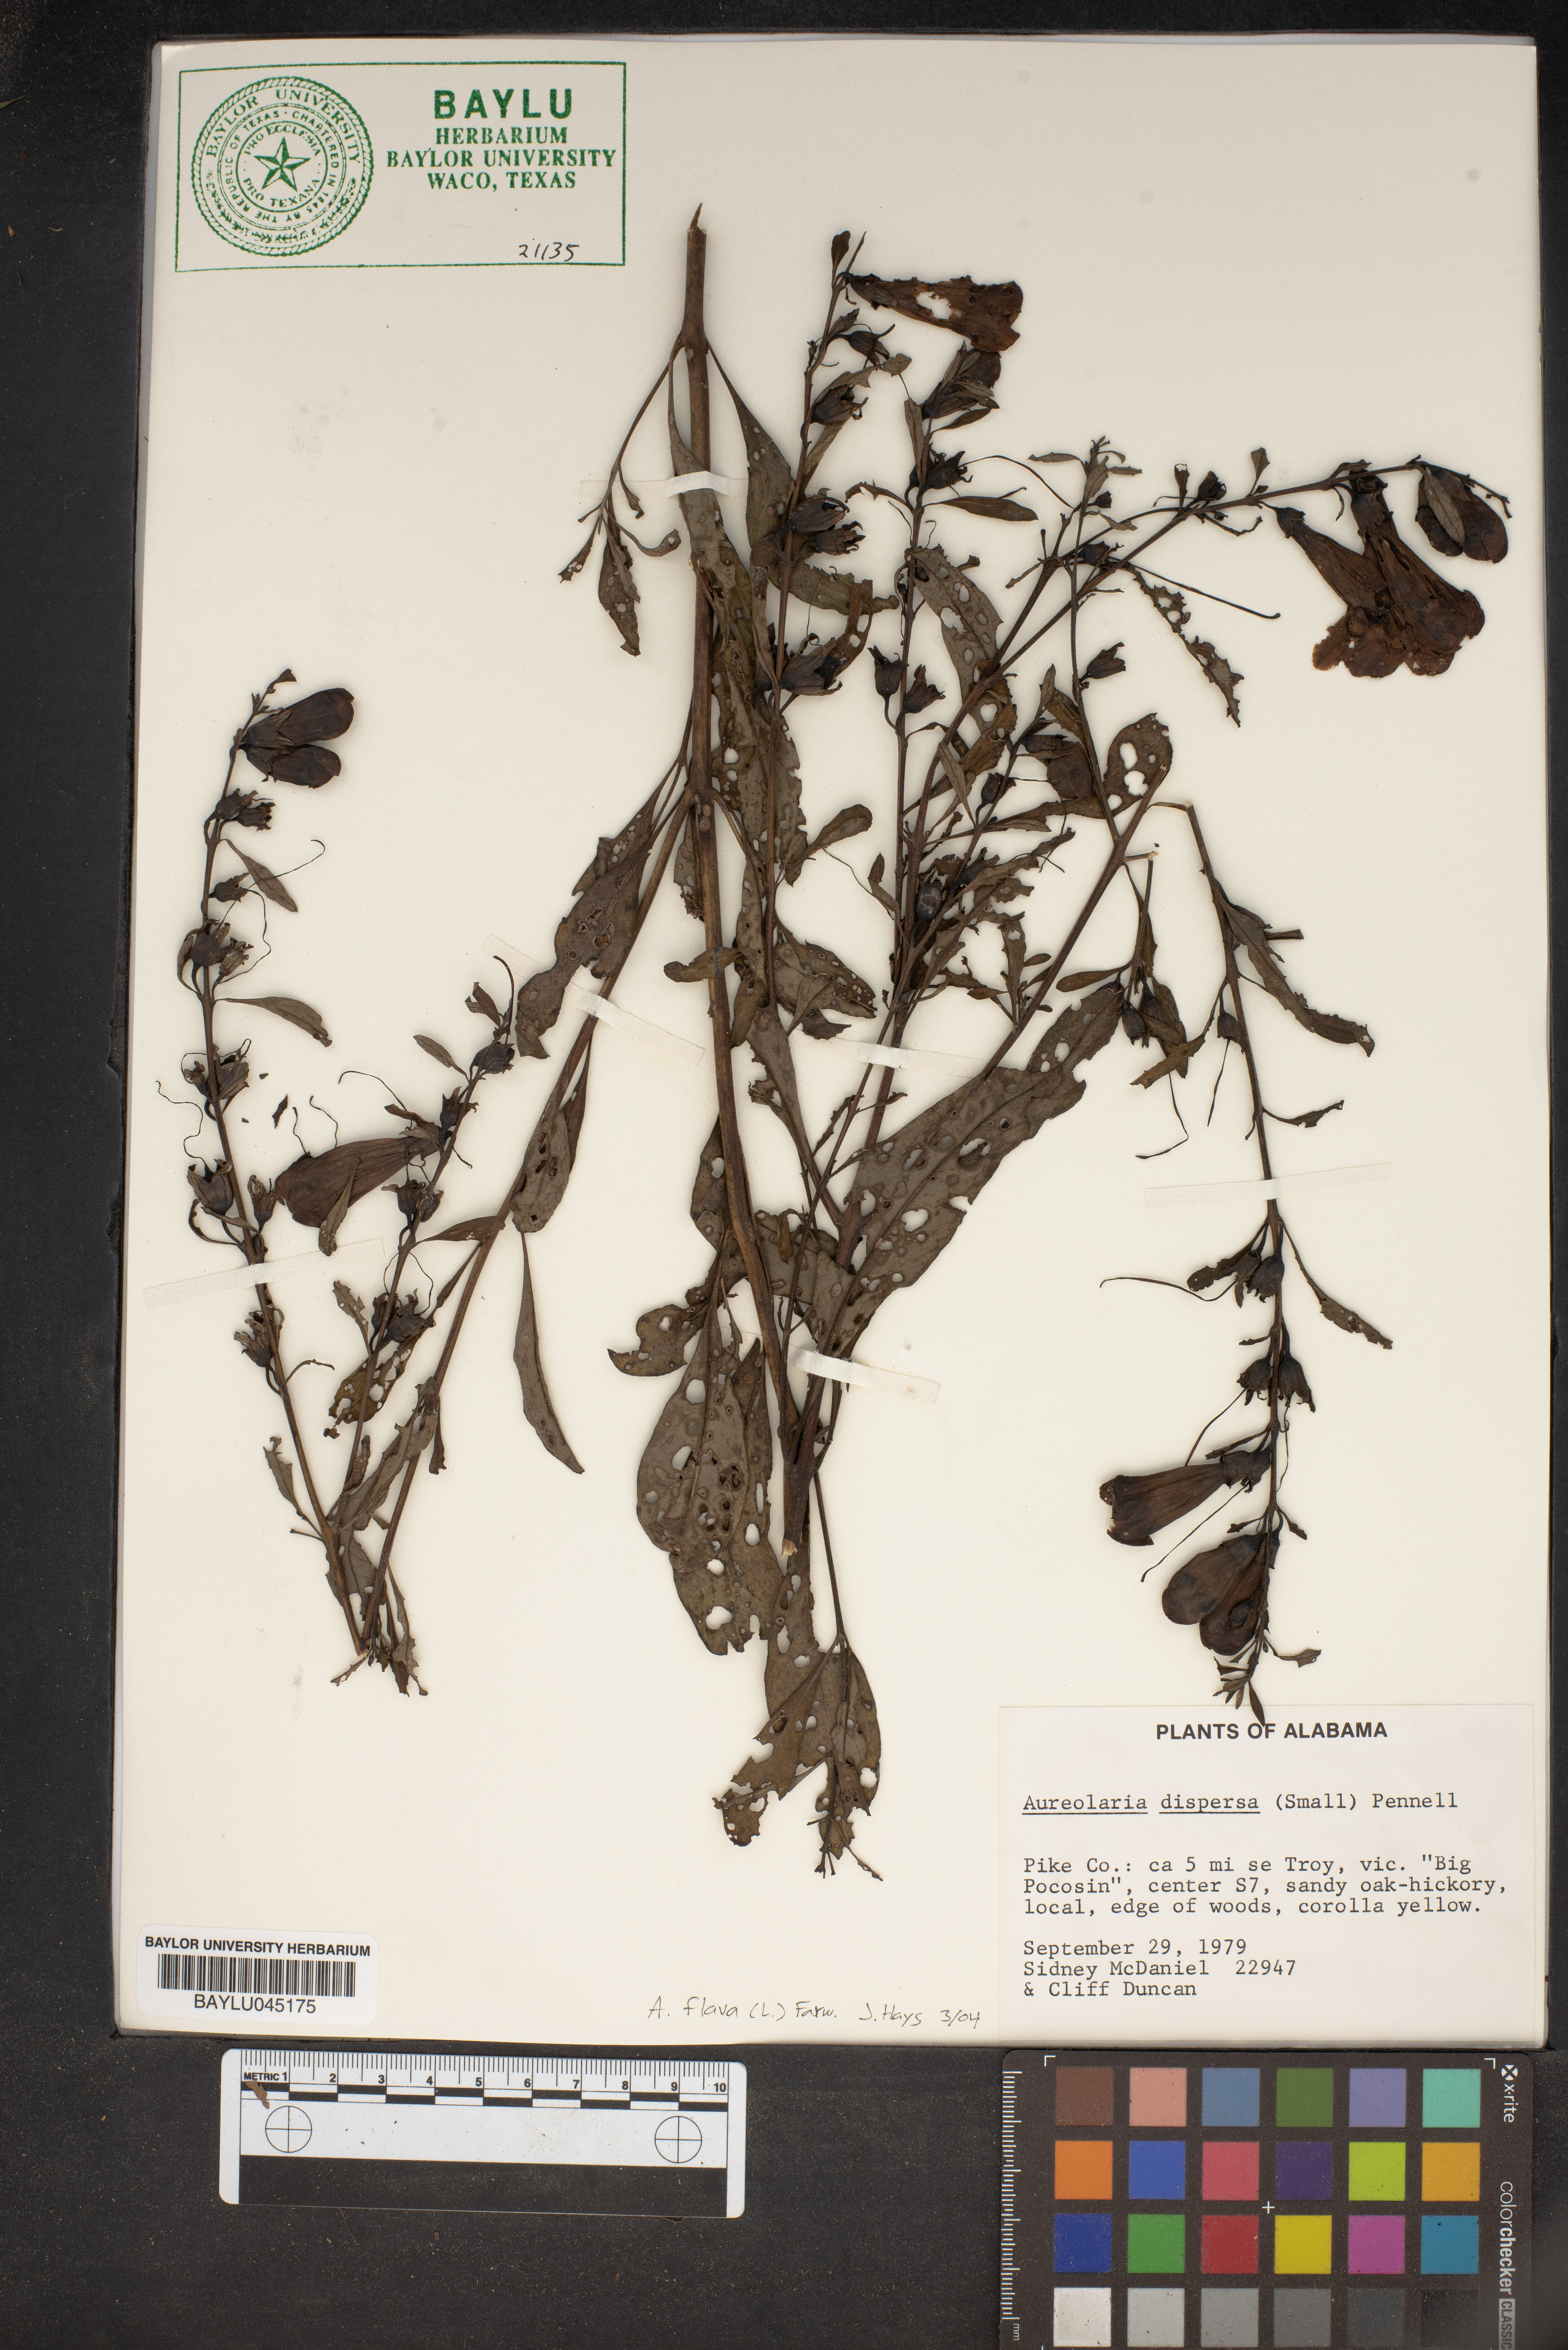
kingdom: Plantae
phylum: Tracheophyta
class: Magnoliopsida
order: Lamiales
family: Orobanchaceae
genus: Aureolaria
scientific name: Aureolaria virginica
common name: Downy false foxglove
